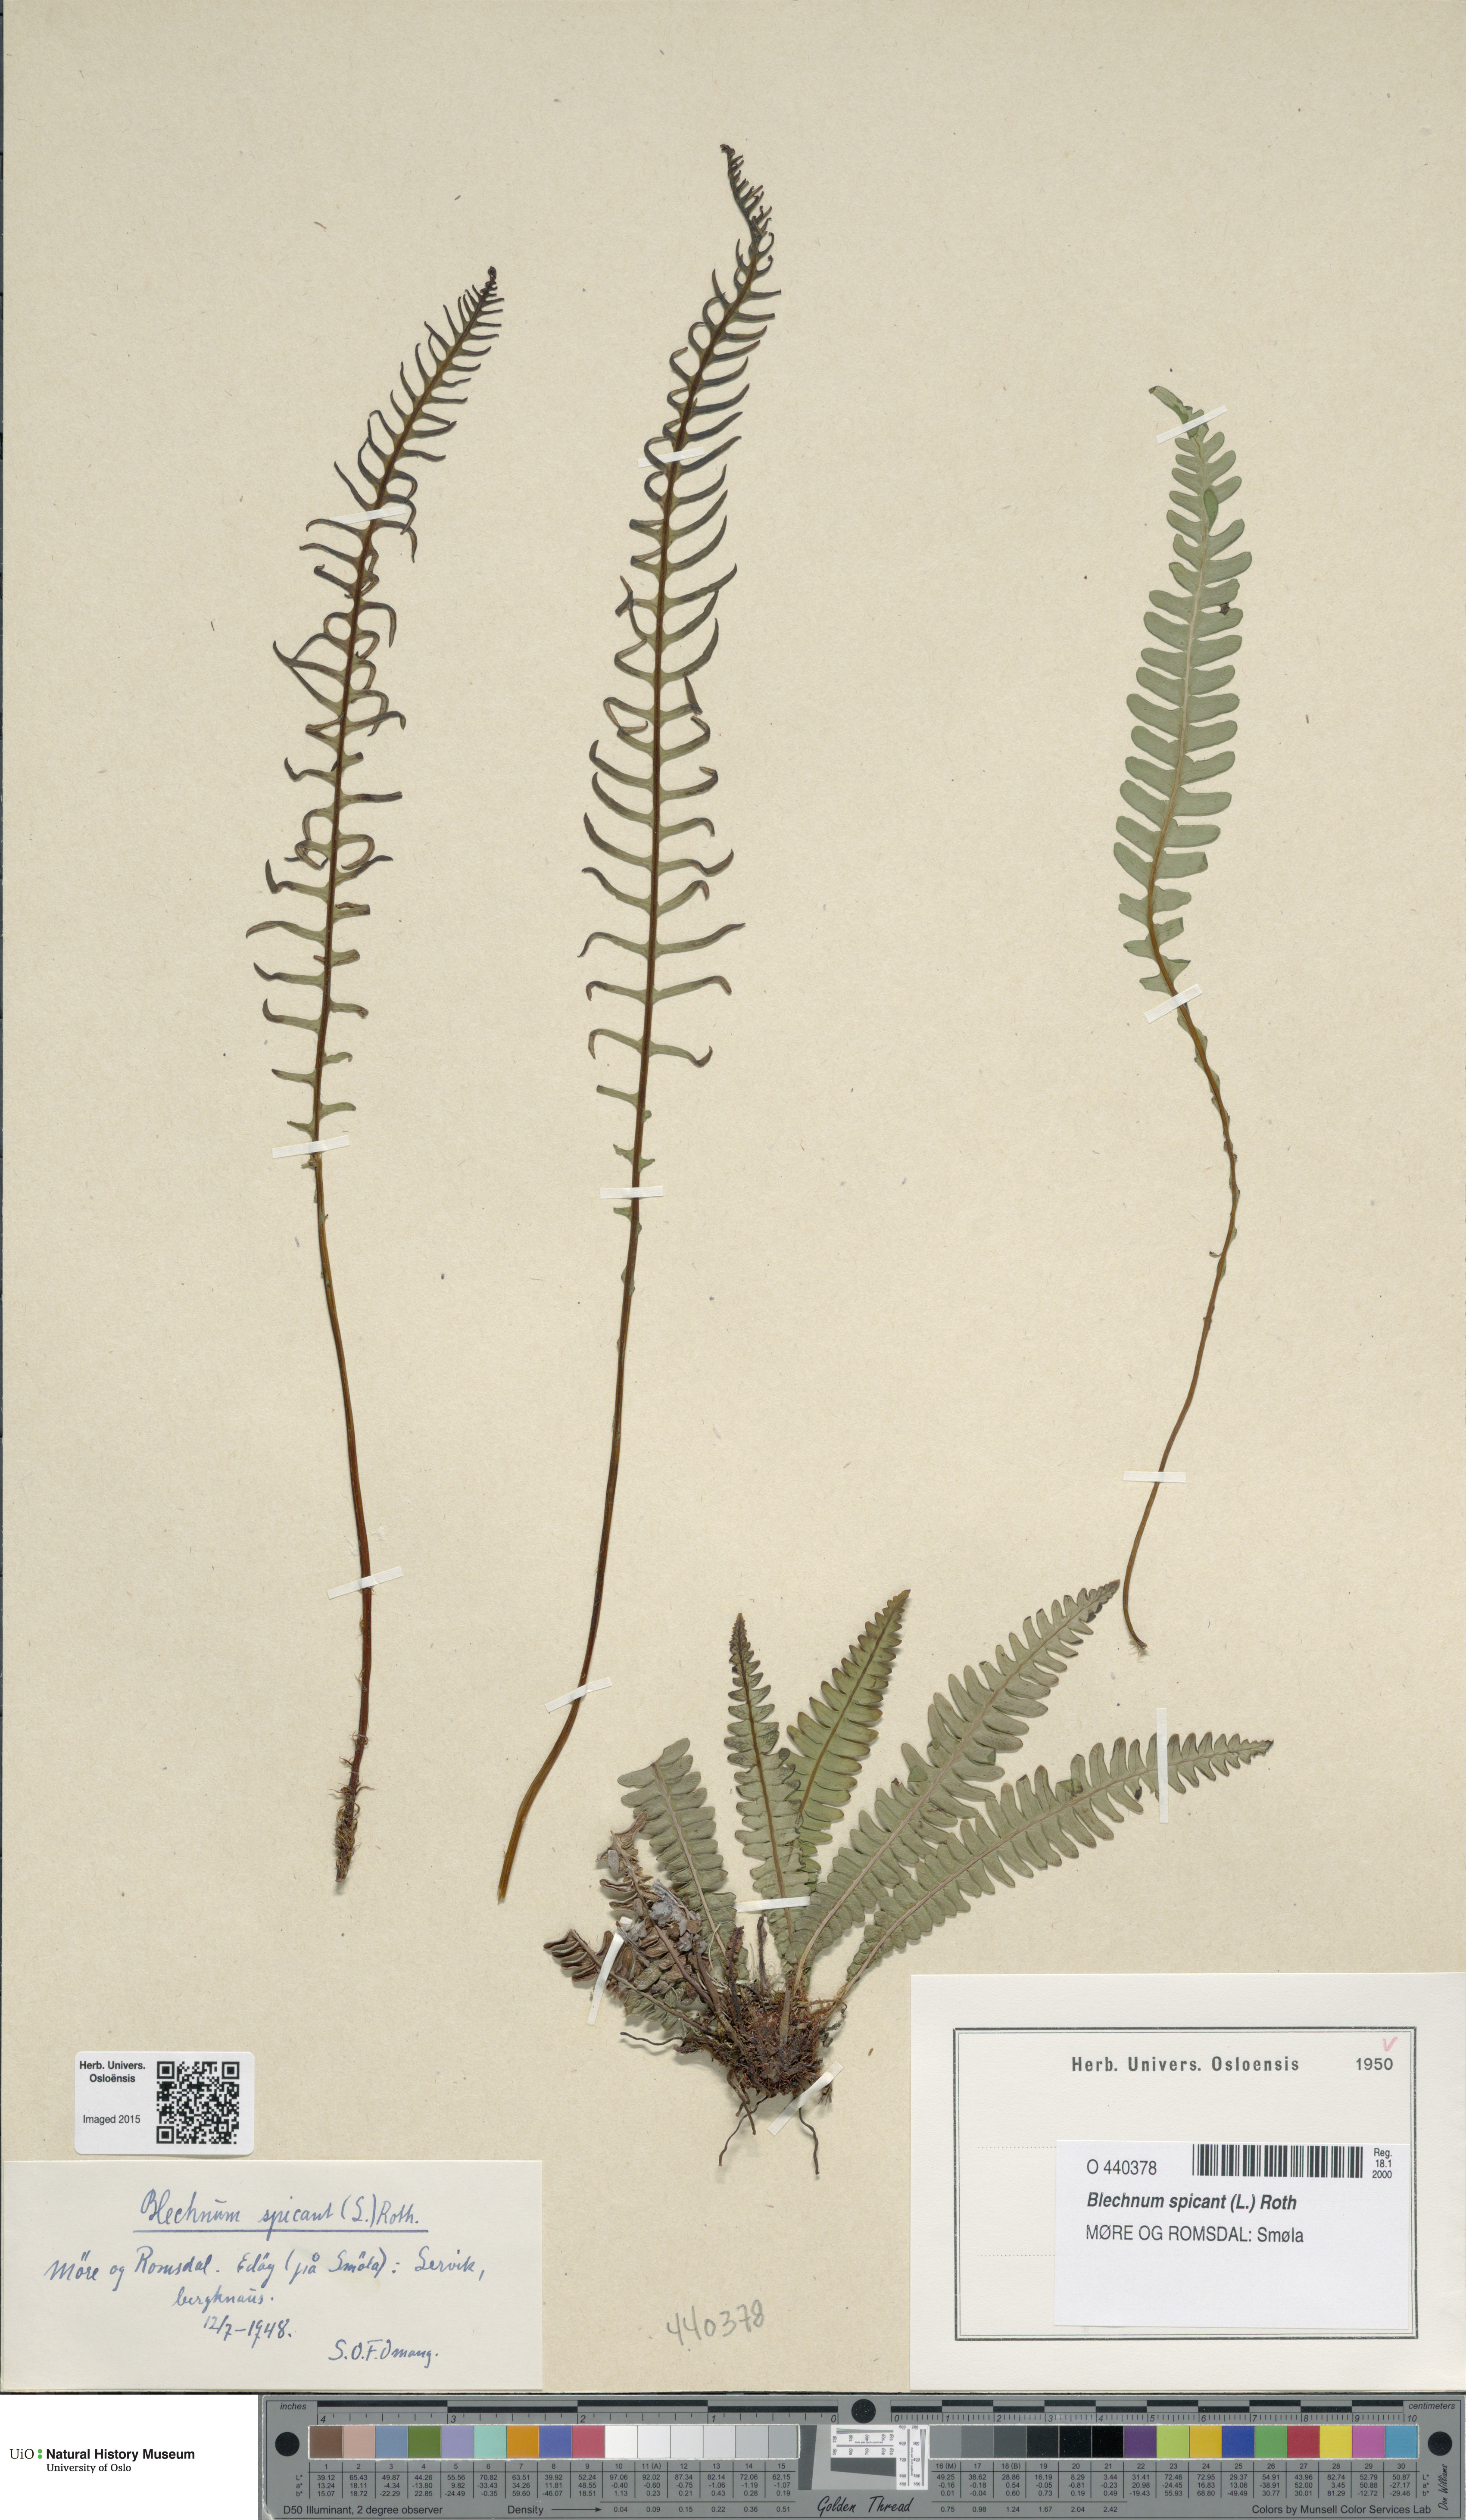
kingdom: Plantae
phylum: Tracheophyta
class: Polypodiopsida
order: Polypodiales
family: Blechnaceae
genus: Struthiopteris
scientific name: Struthiopteris spicant
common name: Deer fern
